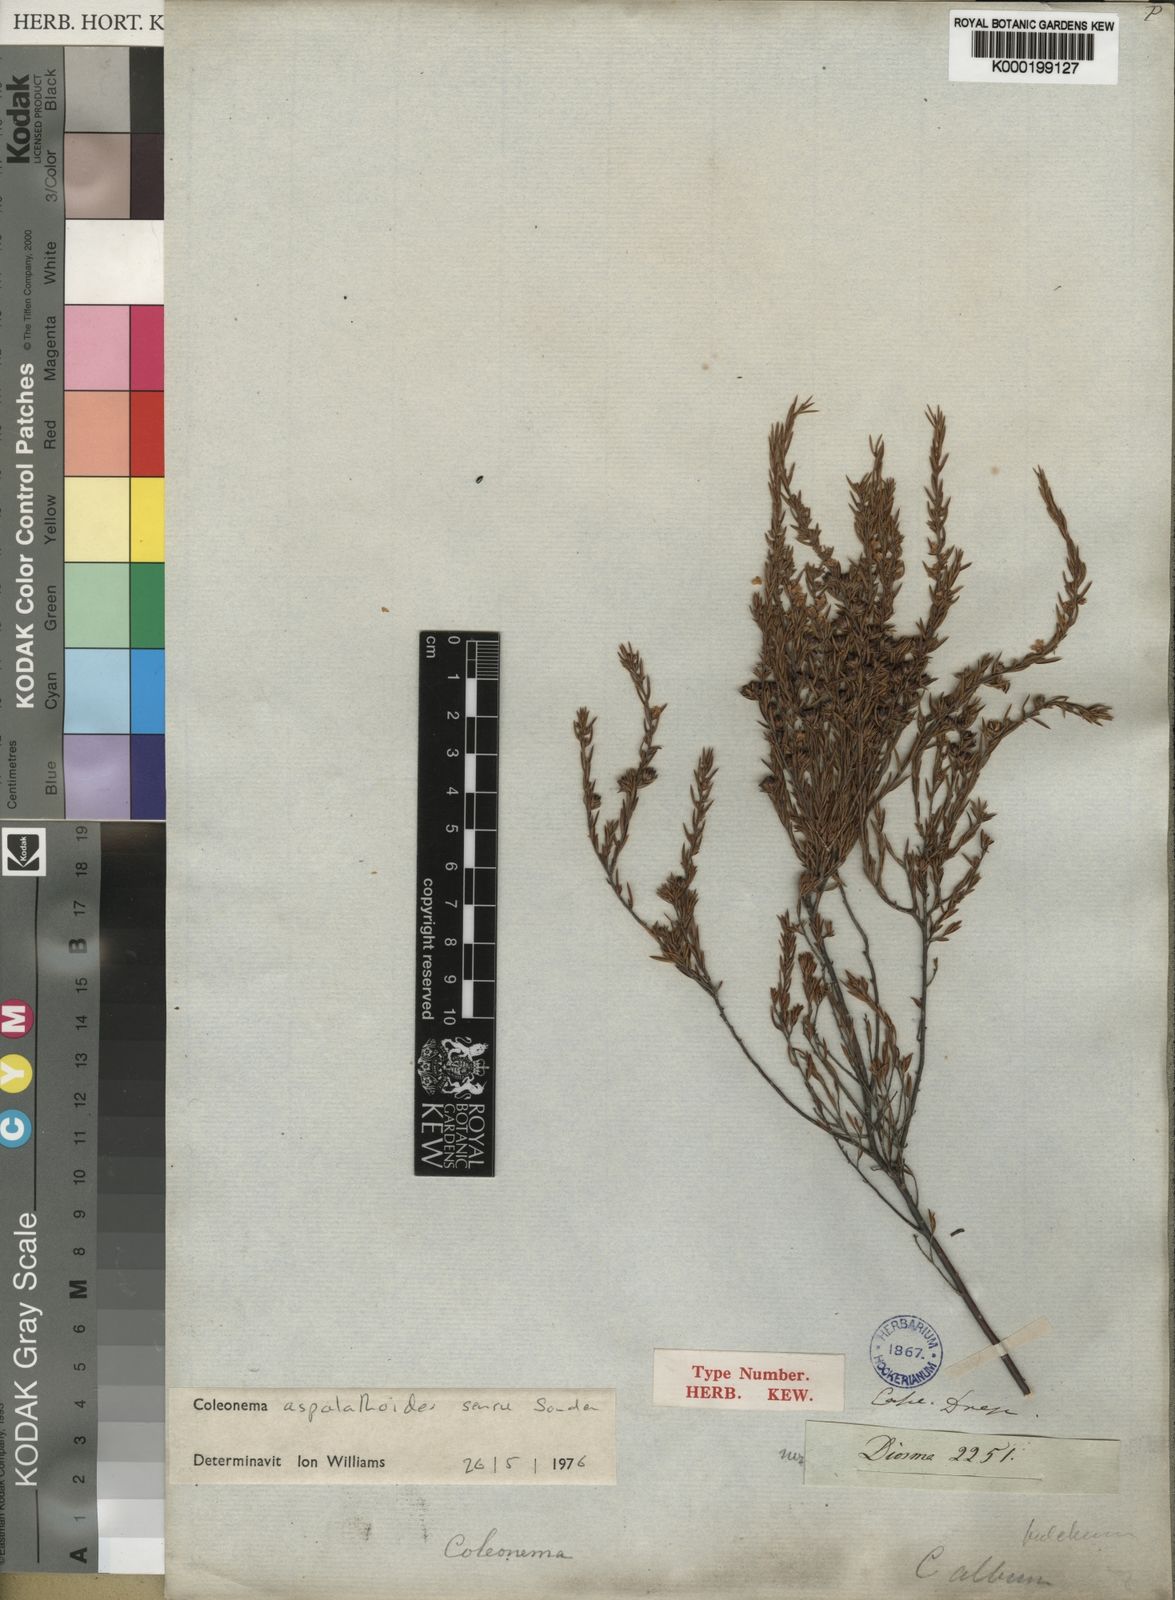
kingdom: Plantae
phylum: Tracheophyta
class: Magnoliopsida
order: Sapindales
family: Rutaceae
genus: Coleonema
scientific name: Coleonema aspalathoides
